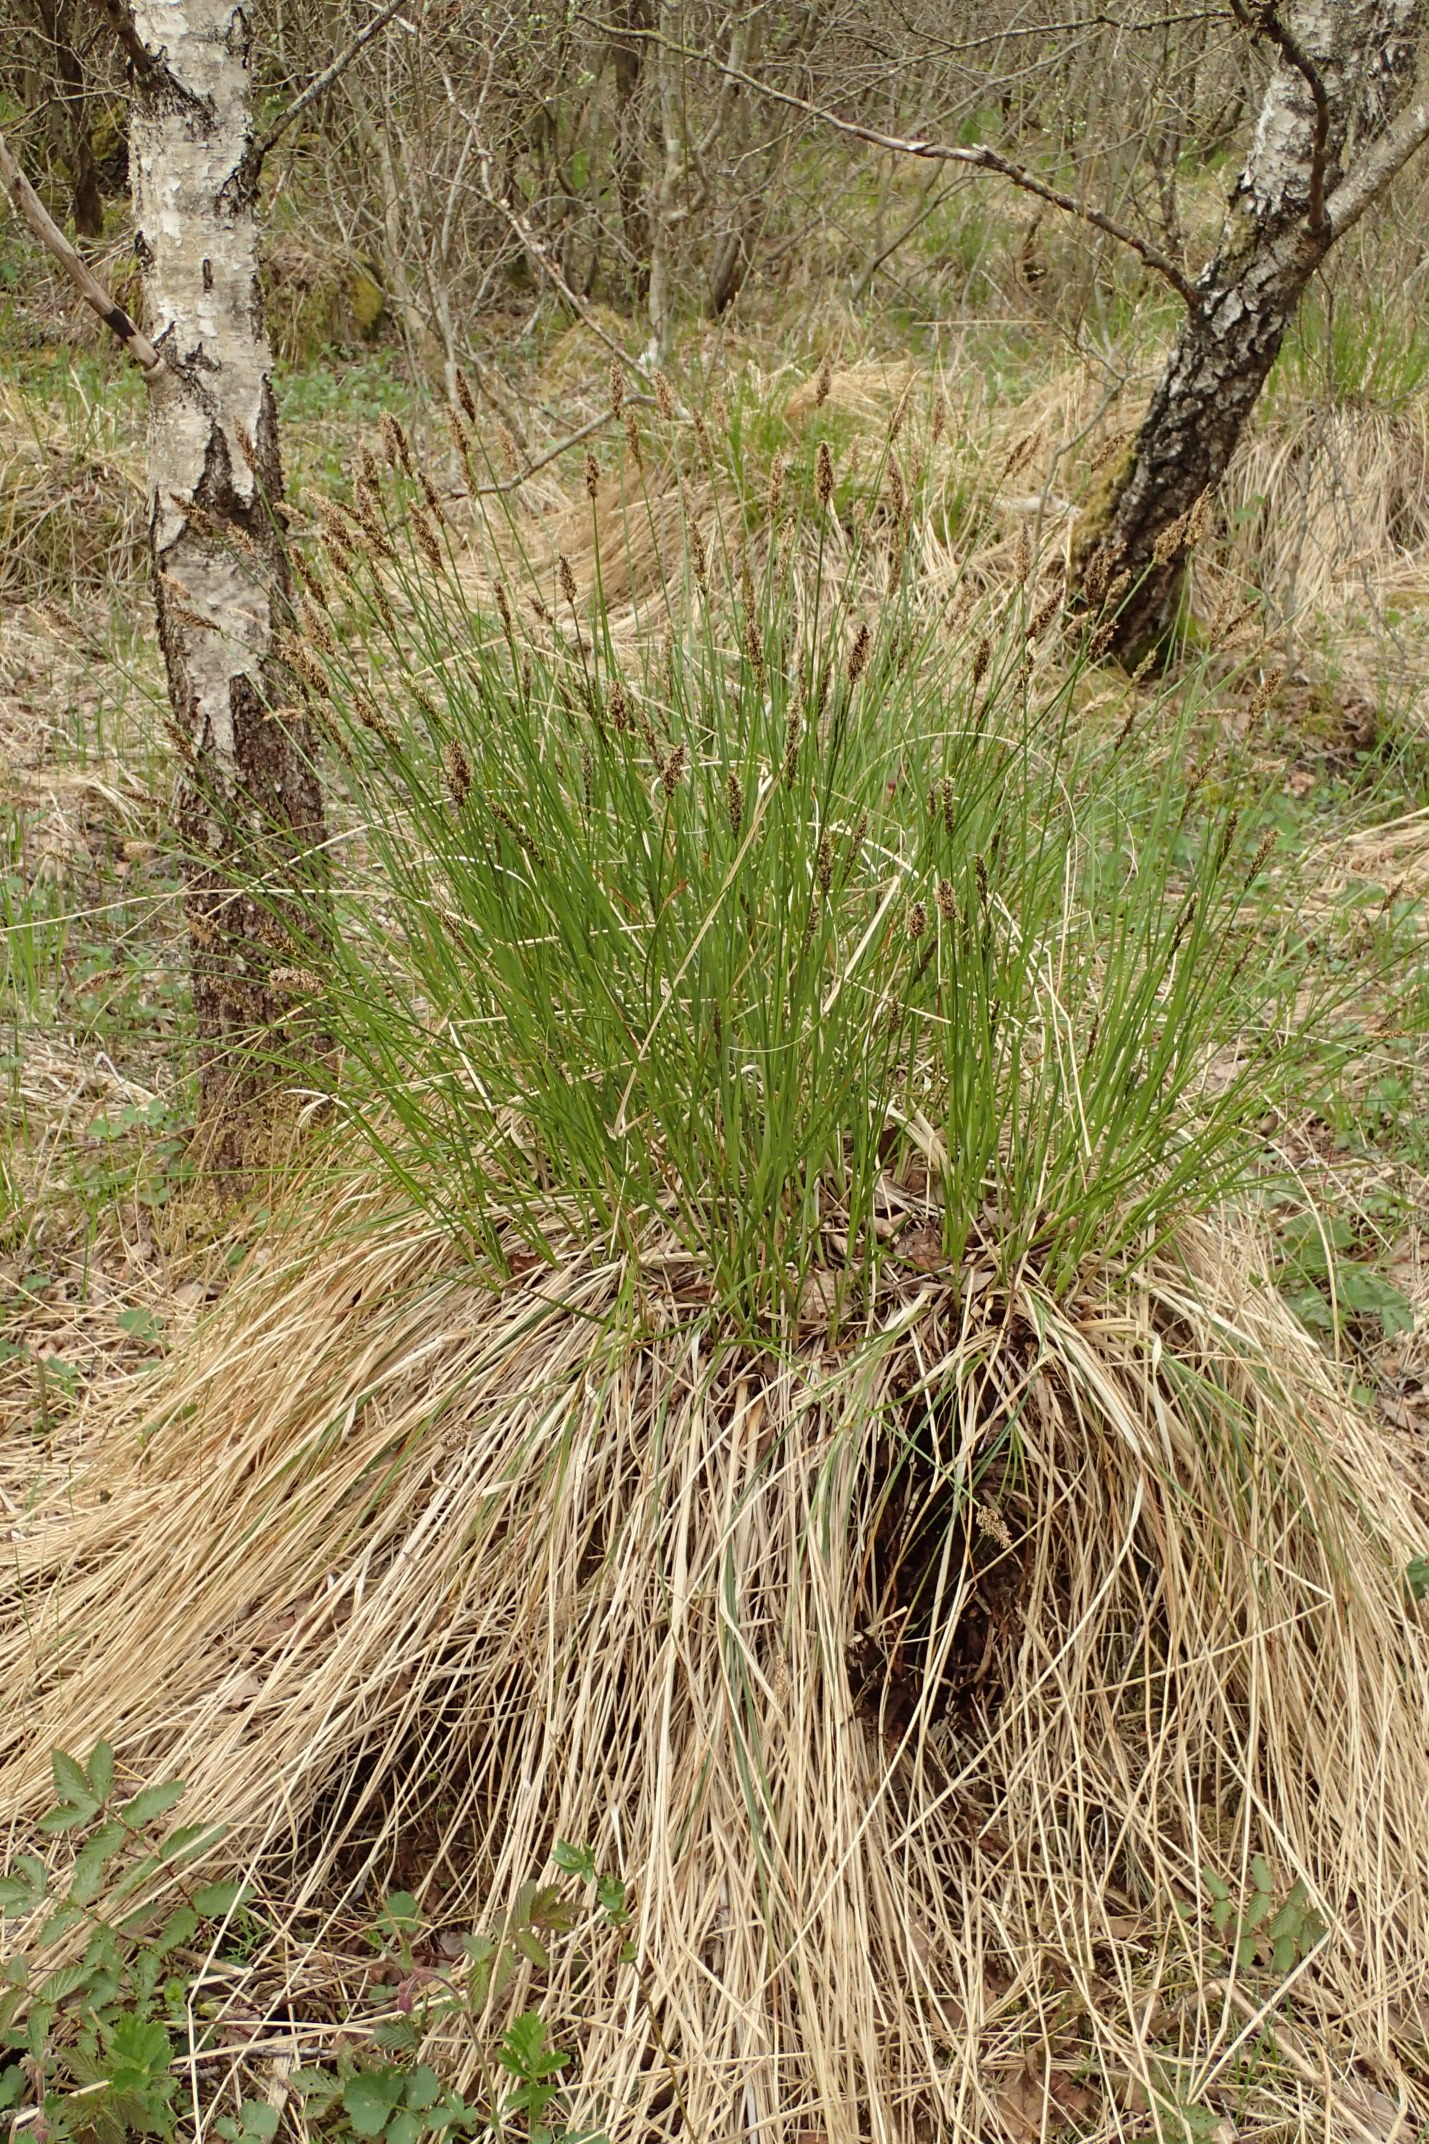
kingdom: Plantae
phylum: Tracheophyta
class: Liliopsida
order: Poales
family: Cyperaceae
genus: Carex
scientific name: Carex paniculata
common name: Top-star
